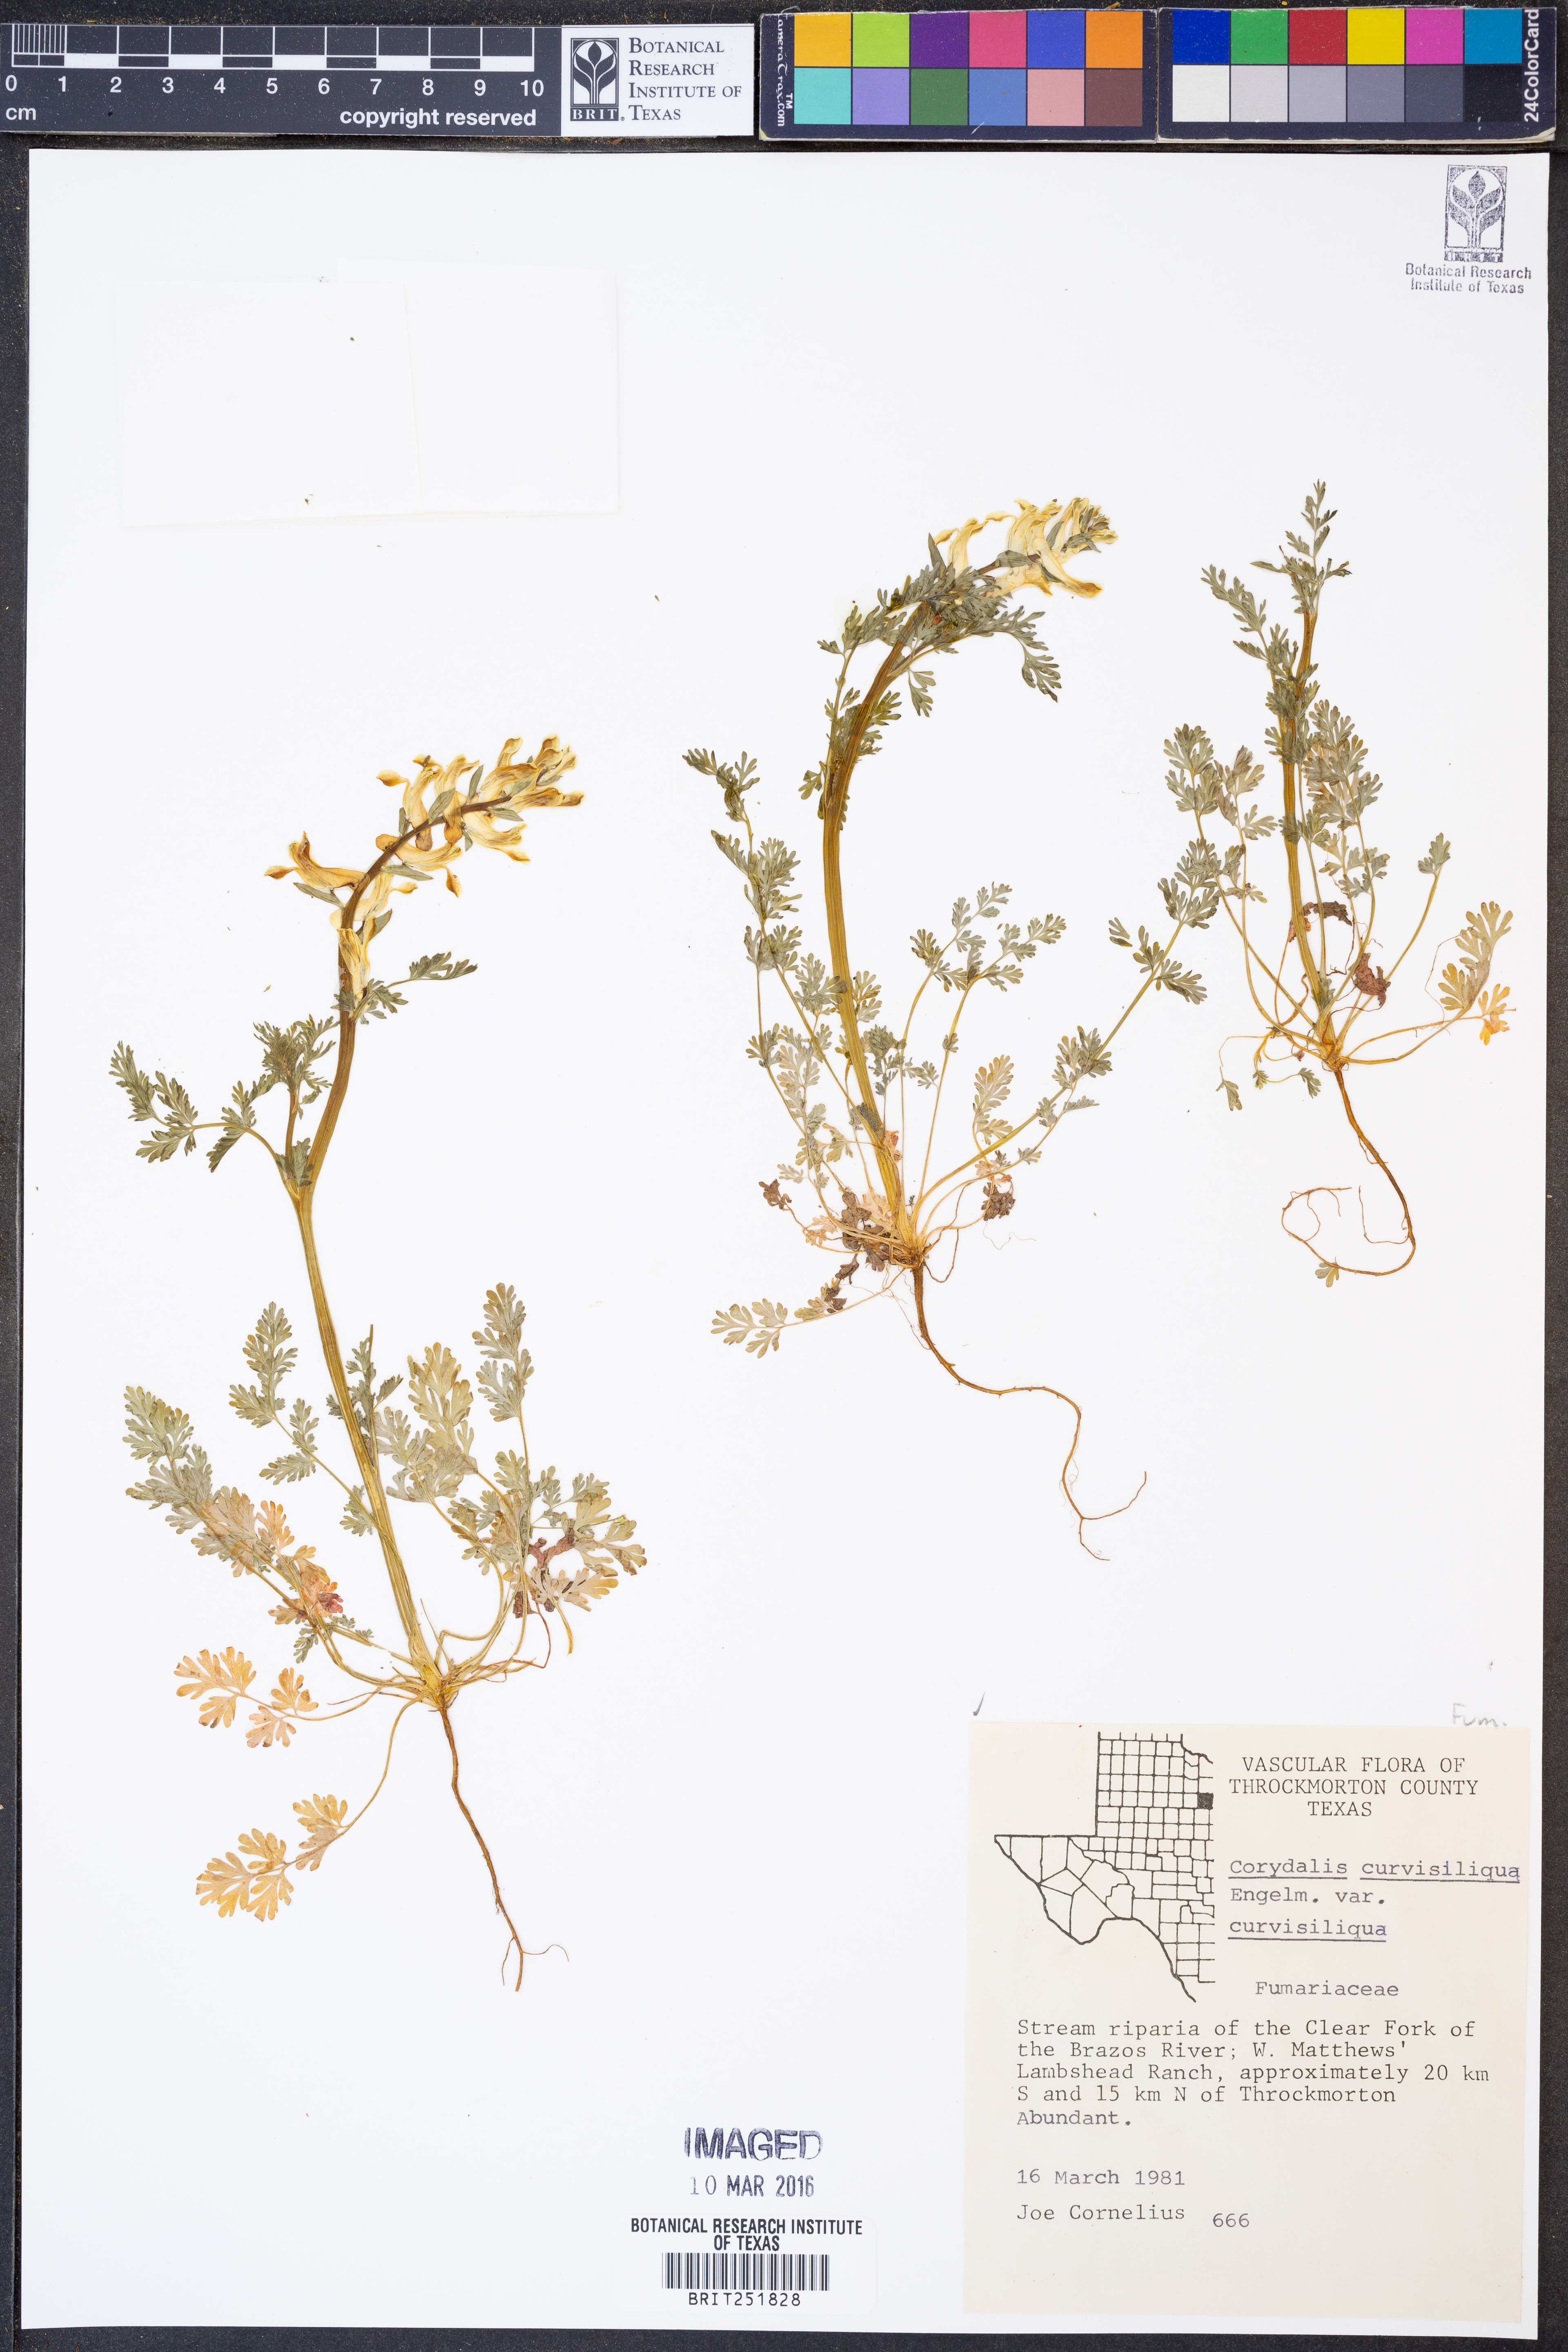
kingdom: Plantae
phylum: Tracheophyta
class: Magnoliopsida
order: Ranunculales
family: Papaveraceae
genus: Corydalis
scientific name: Corydalis curvisiliqua
